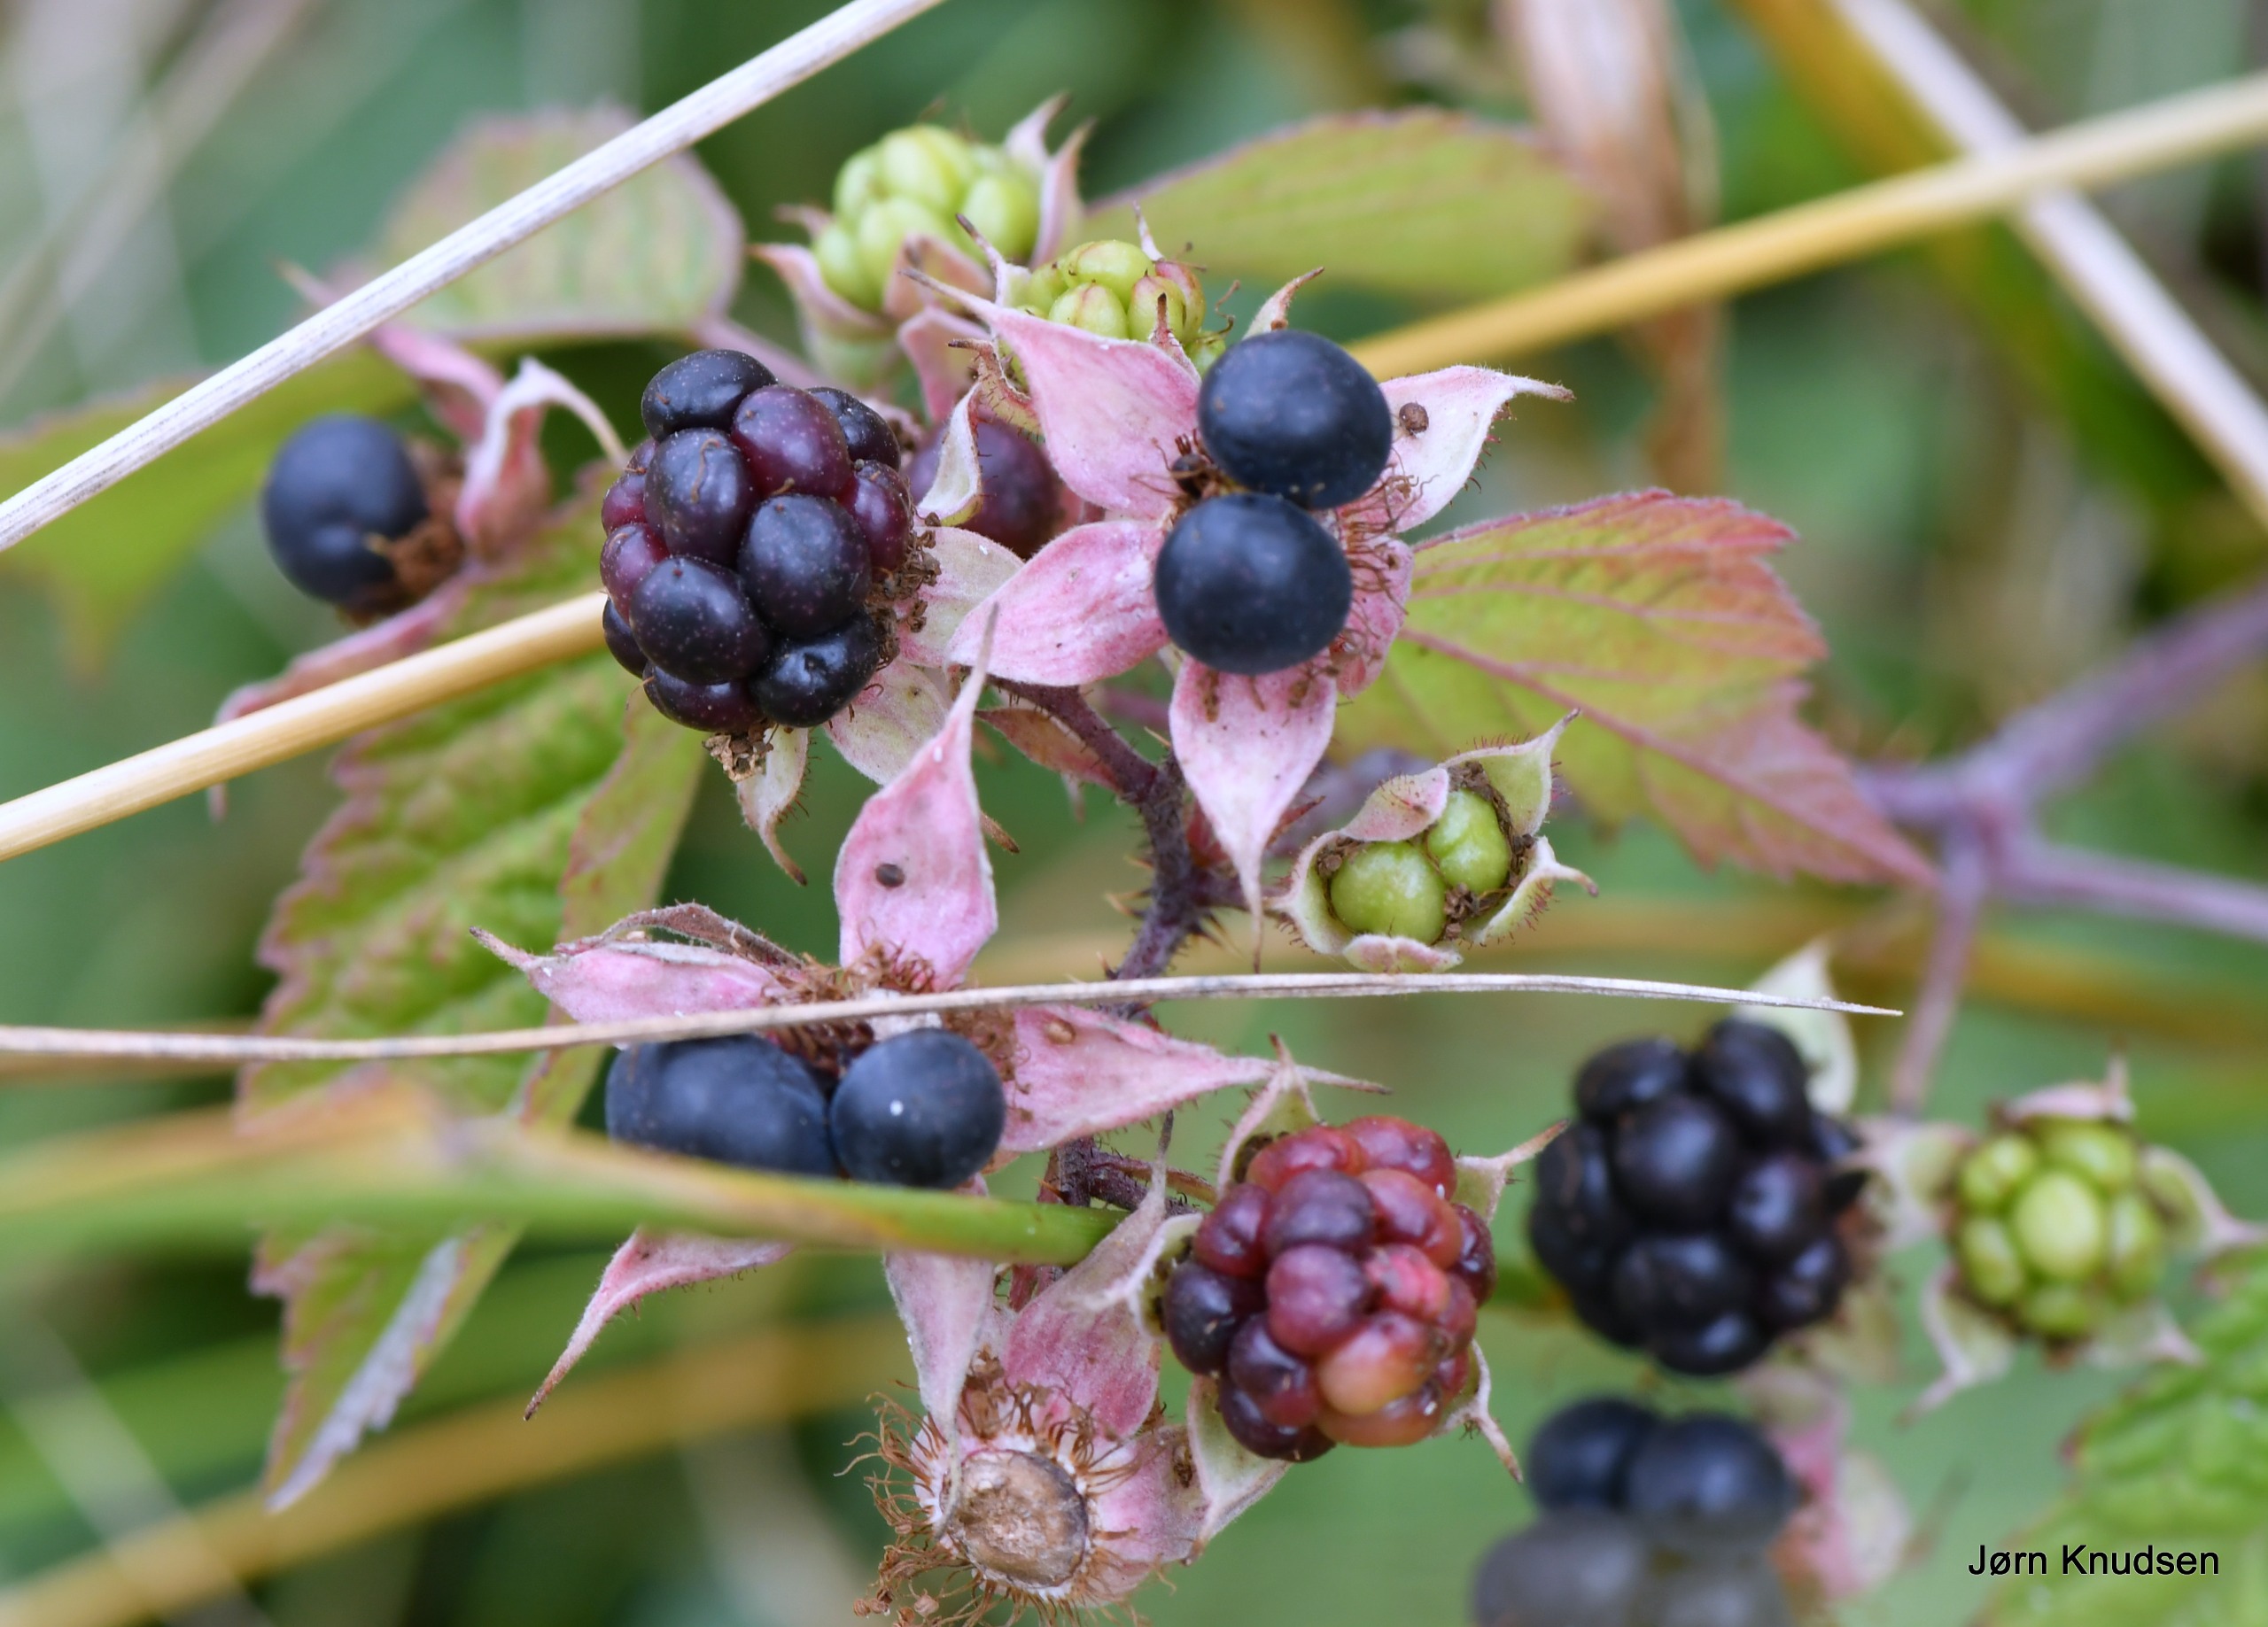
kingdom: Plantae
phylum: Tracheophyta
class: Magnoliopsida
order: Rosales
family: Rosaceae
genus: Rubus
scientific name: Rubus caesius
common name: Korbær
